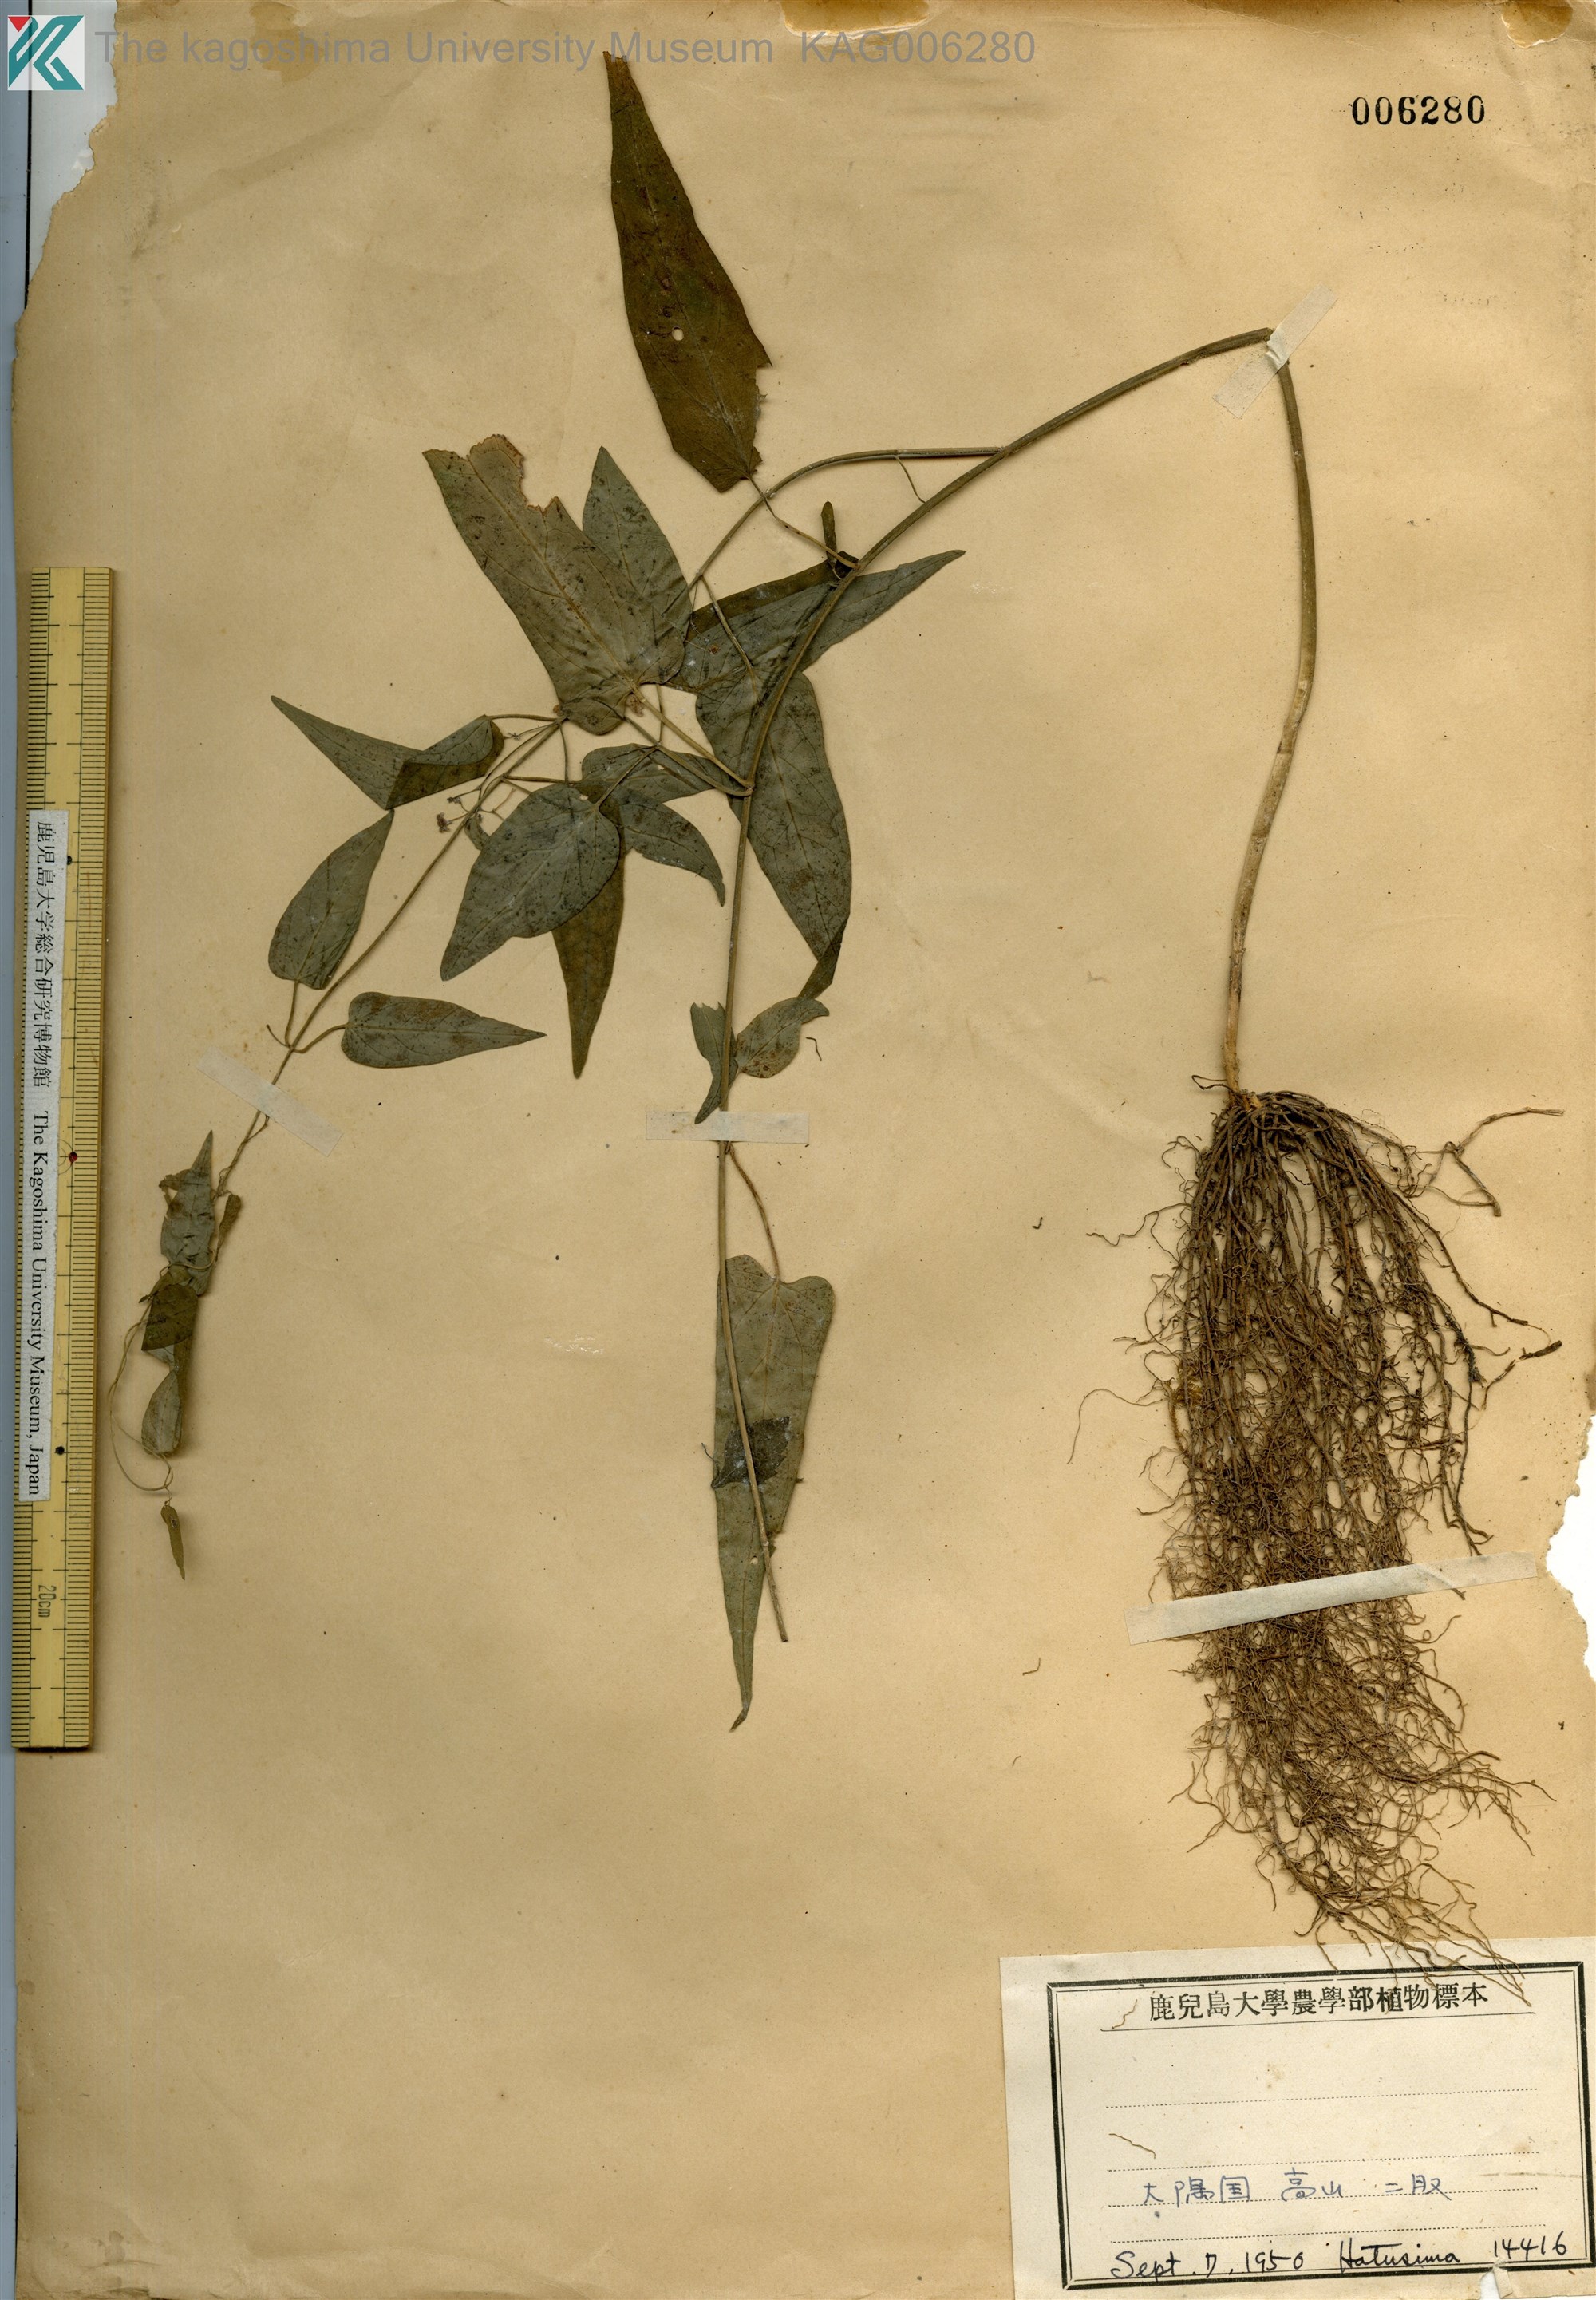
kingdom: Plantae
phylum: Tracheophyta
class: Magnoliopsida
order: Gentianales
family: Apocynaceae
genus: Vincetoxicum
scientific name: Vincetoxicum aristolochioides
